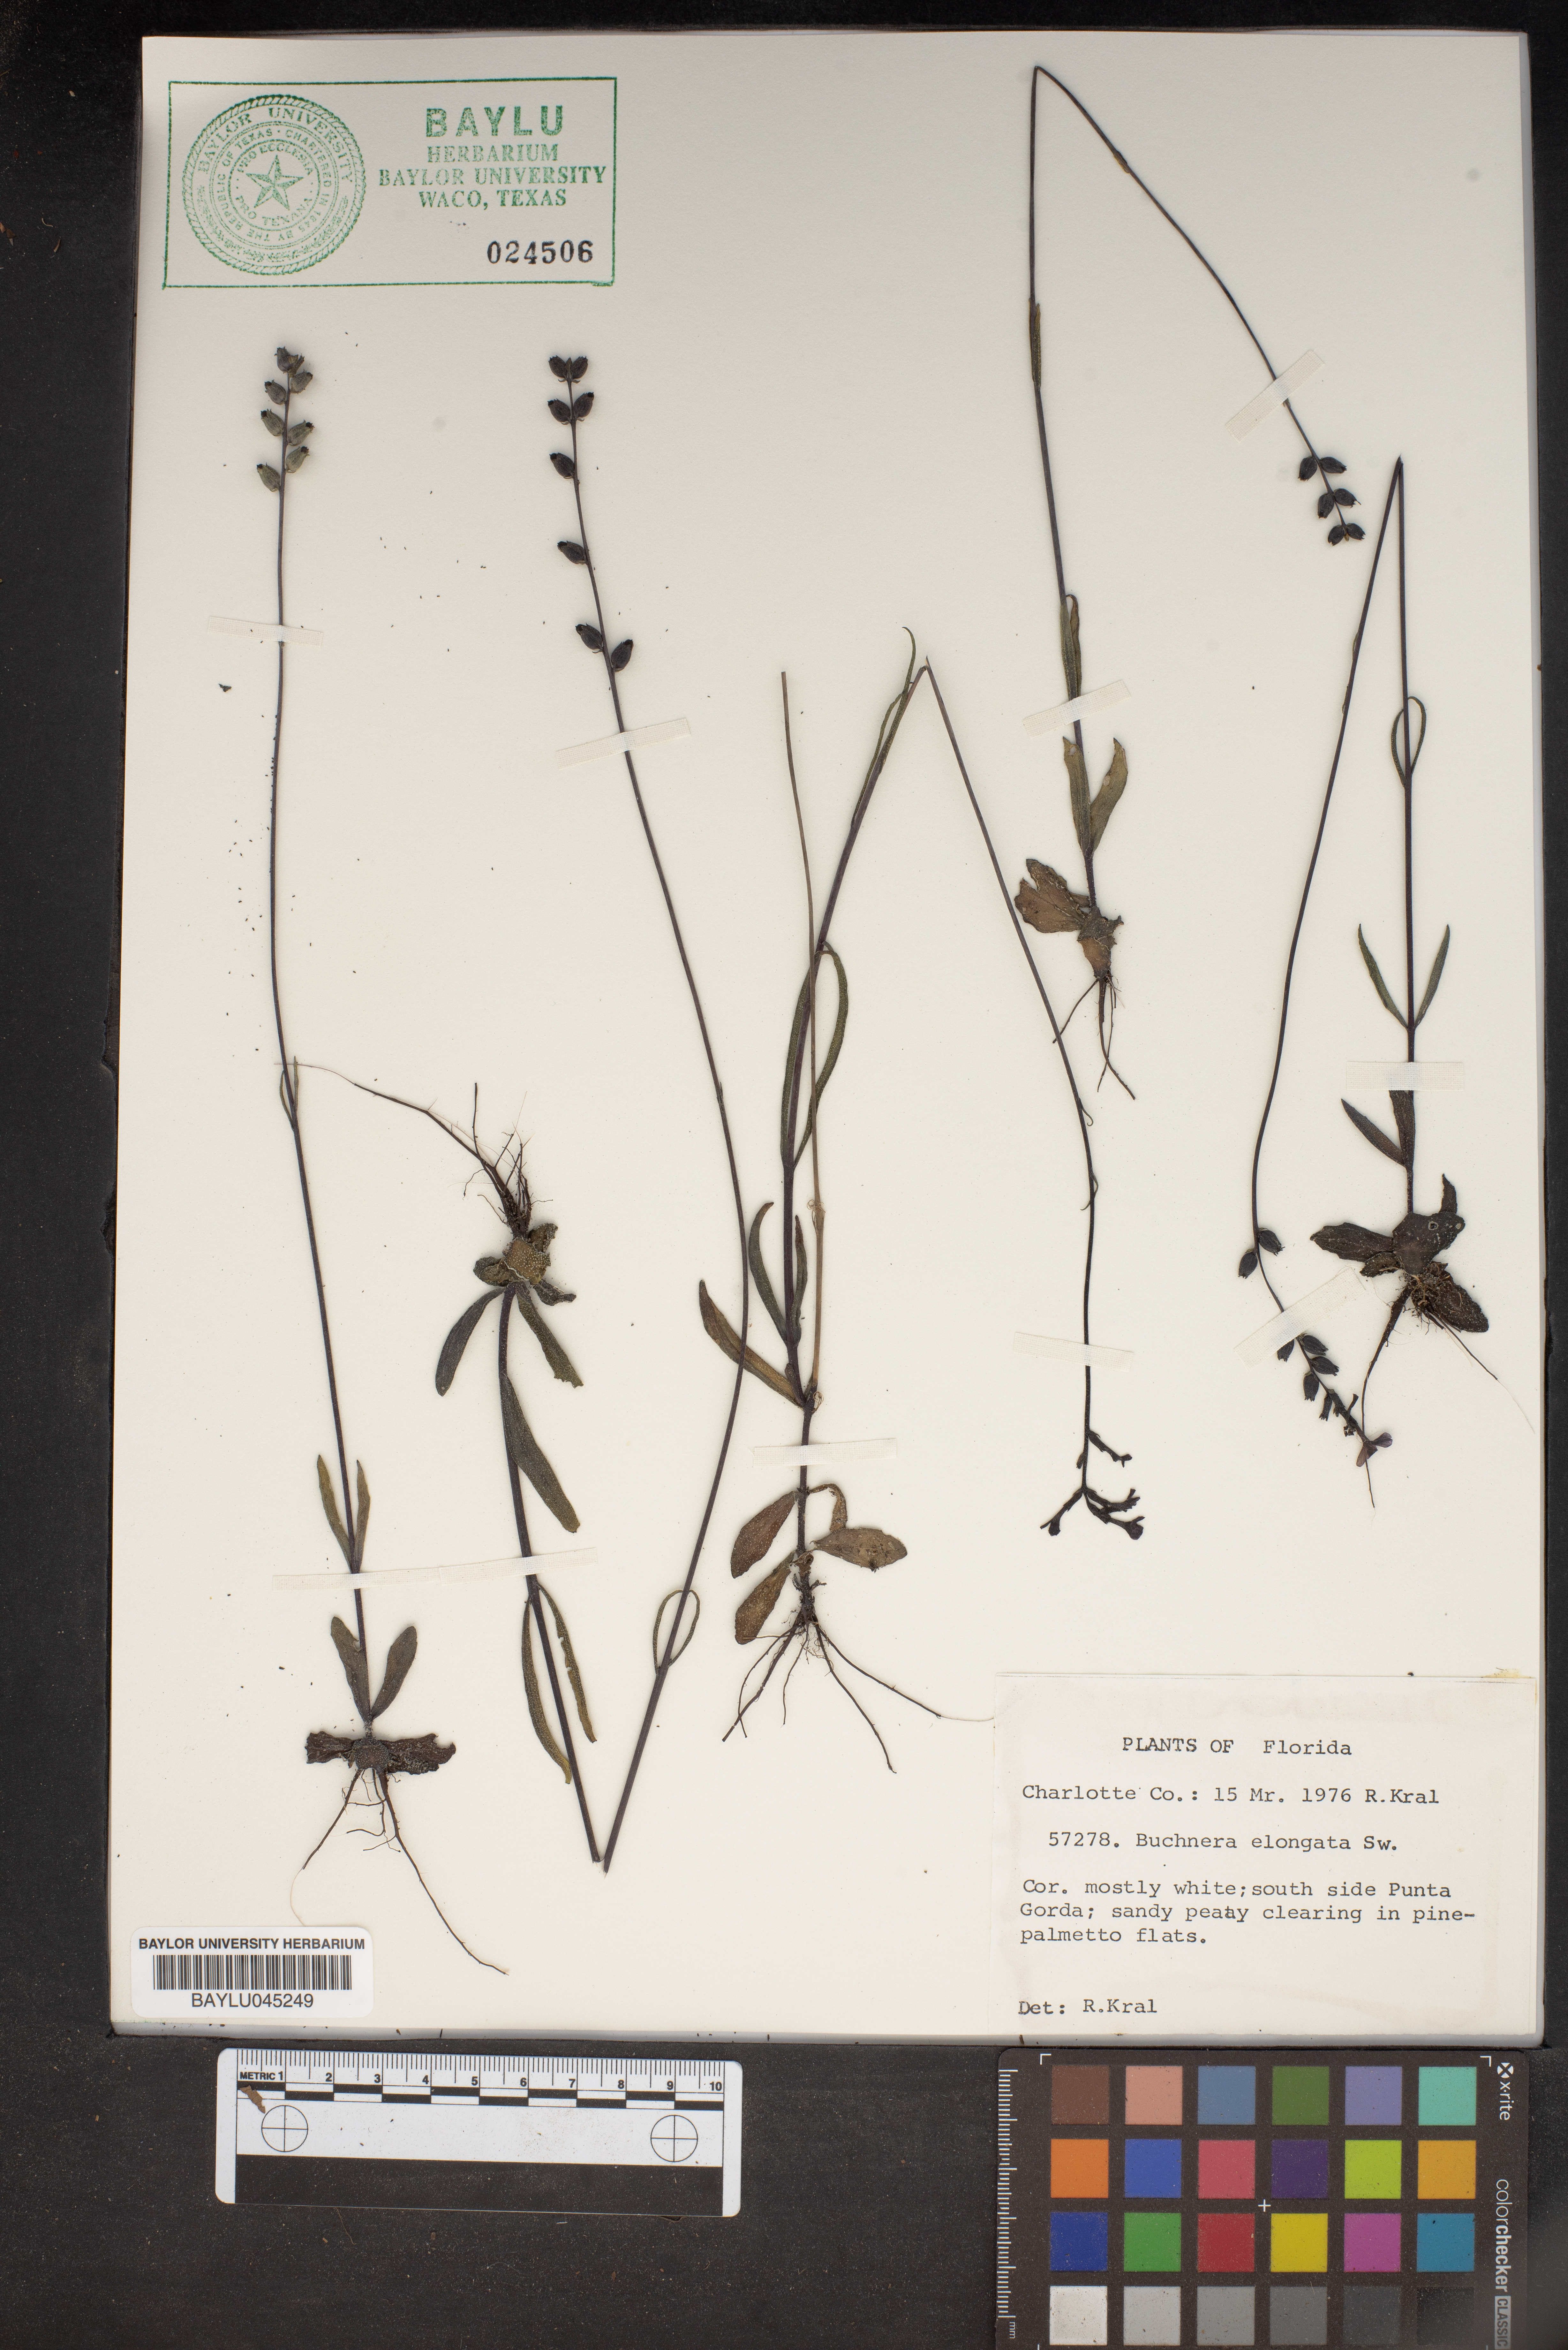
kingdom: Plantae
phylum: Tracheophyta
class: Magnoliopsida
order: Lamiales
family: Orobanchaceae
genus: Buchnera
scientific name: Buchnera
